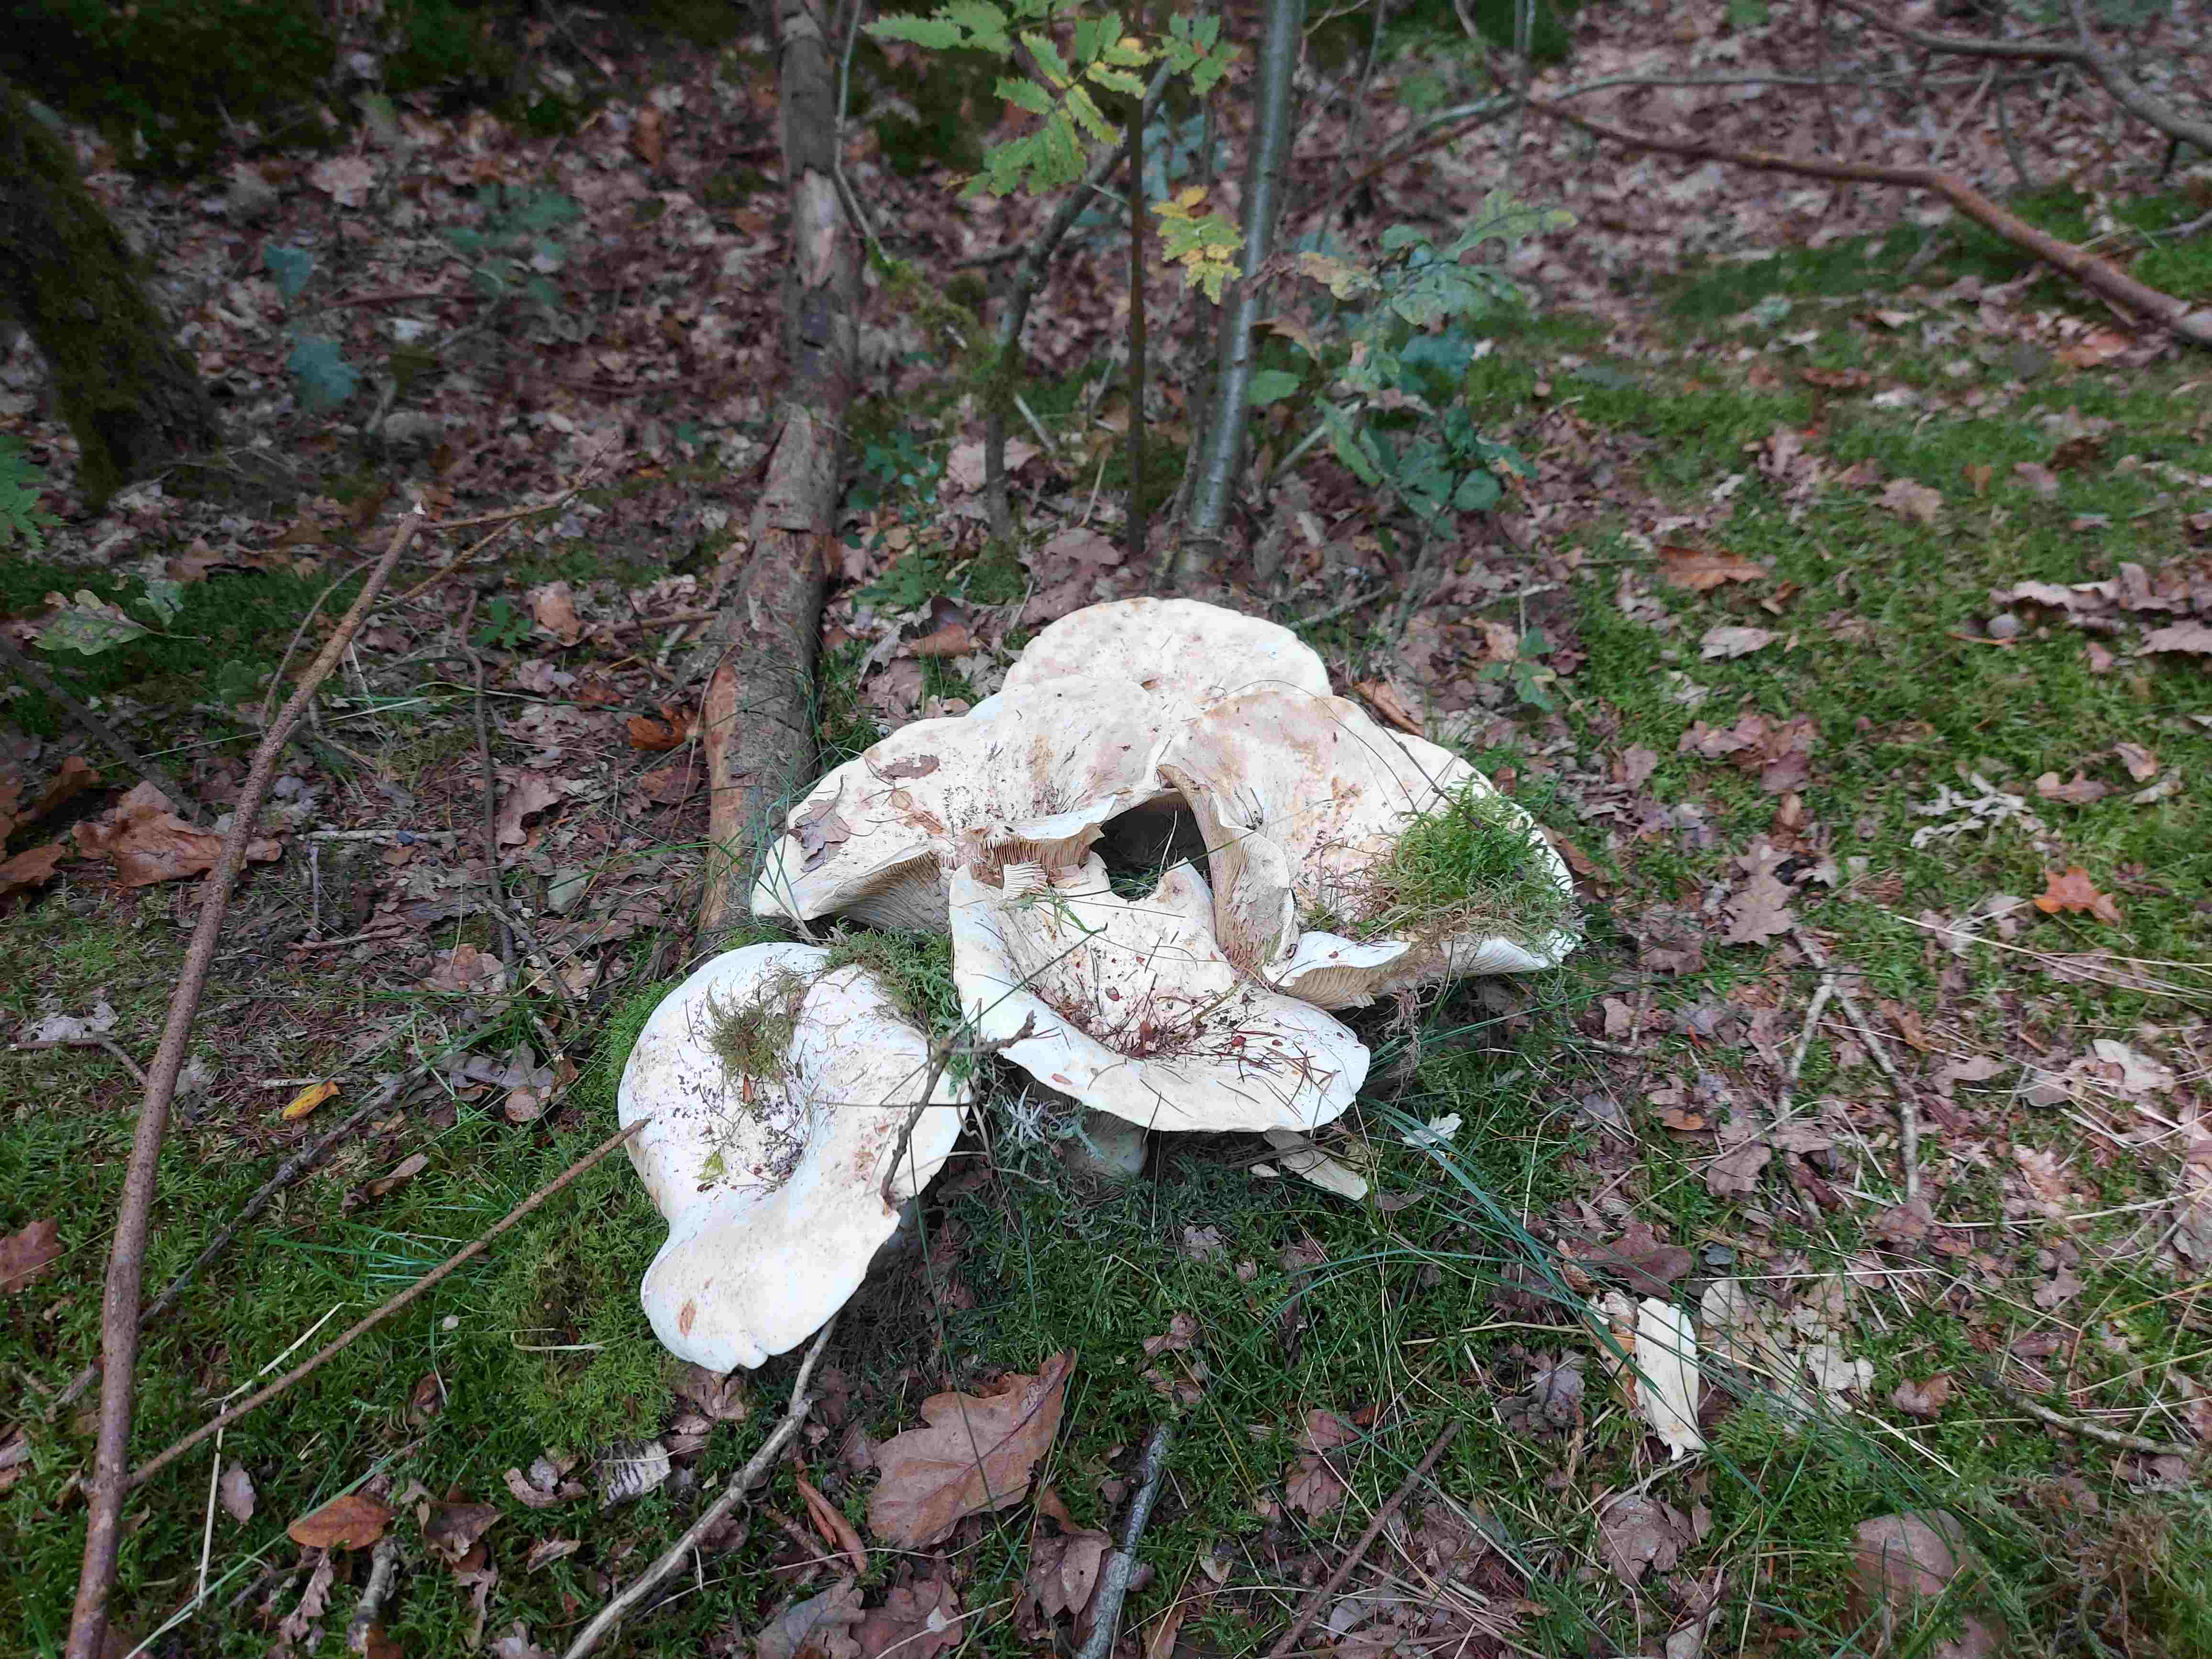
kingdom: Fungi
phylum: Basidiomycota
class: Agaricomycetes
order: Russulales
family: Russulaceae
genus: Lactifluus
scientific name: Lactifluus vellereus
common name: hvidfiltet mælkehat
